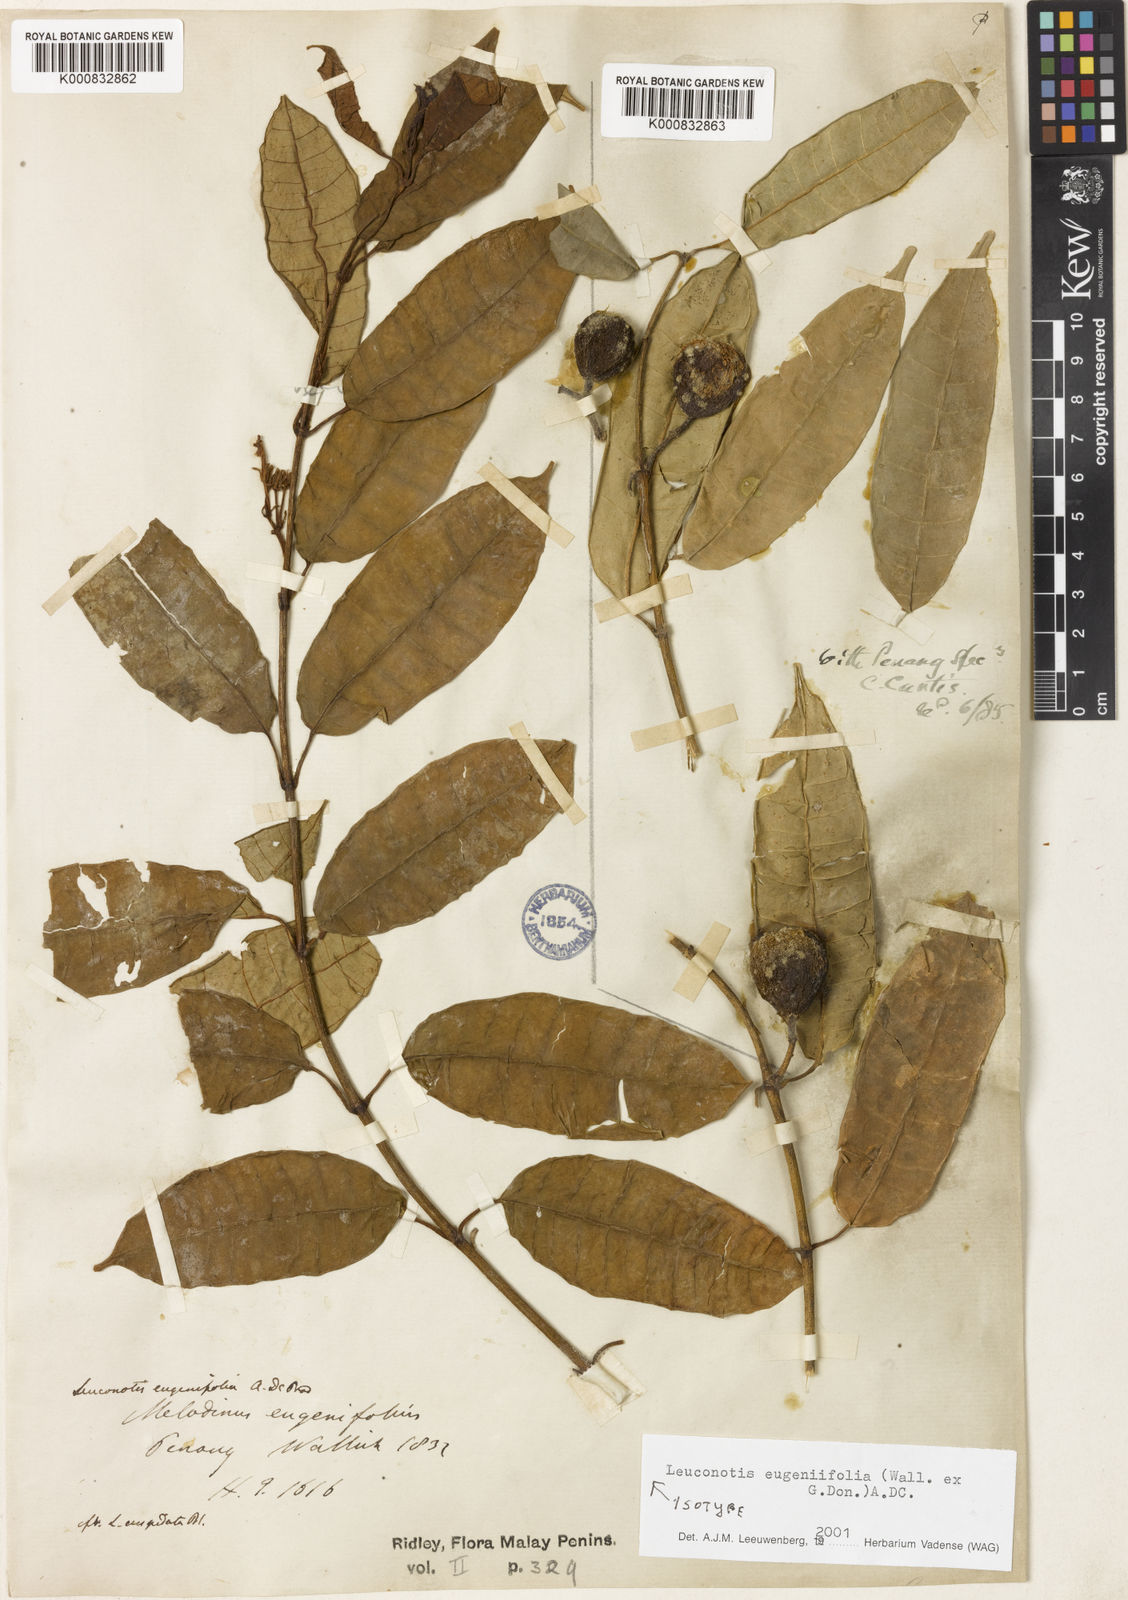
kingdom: Plantae
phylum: Tracheophyta
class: Magnoliopsida
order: Gentianales
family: Apocynaceae
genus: Leuconotis
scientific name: Leuconotis eugeniifolia
